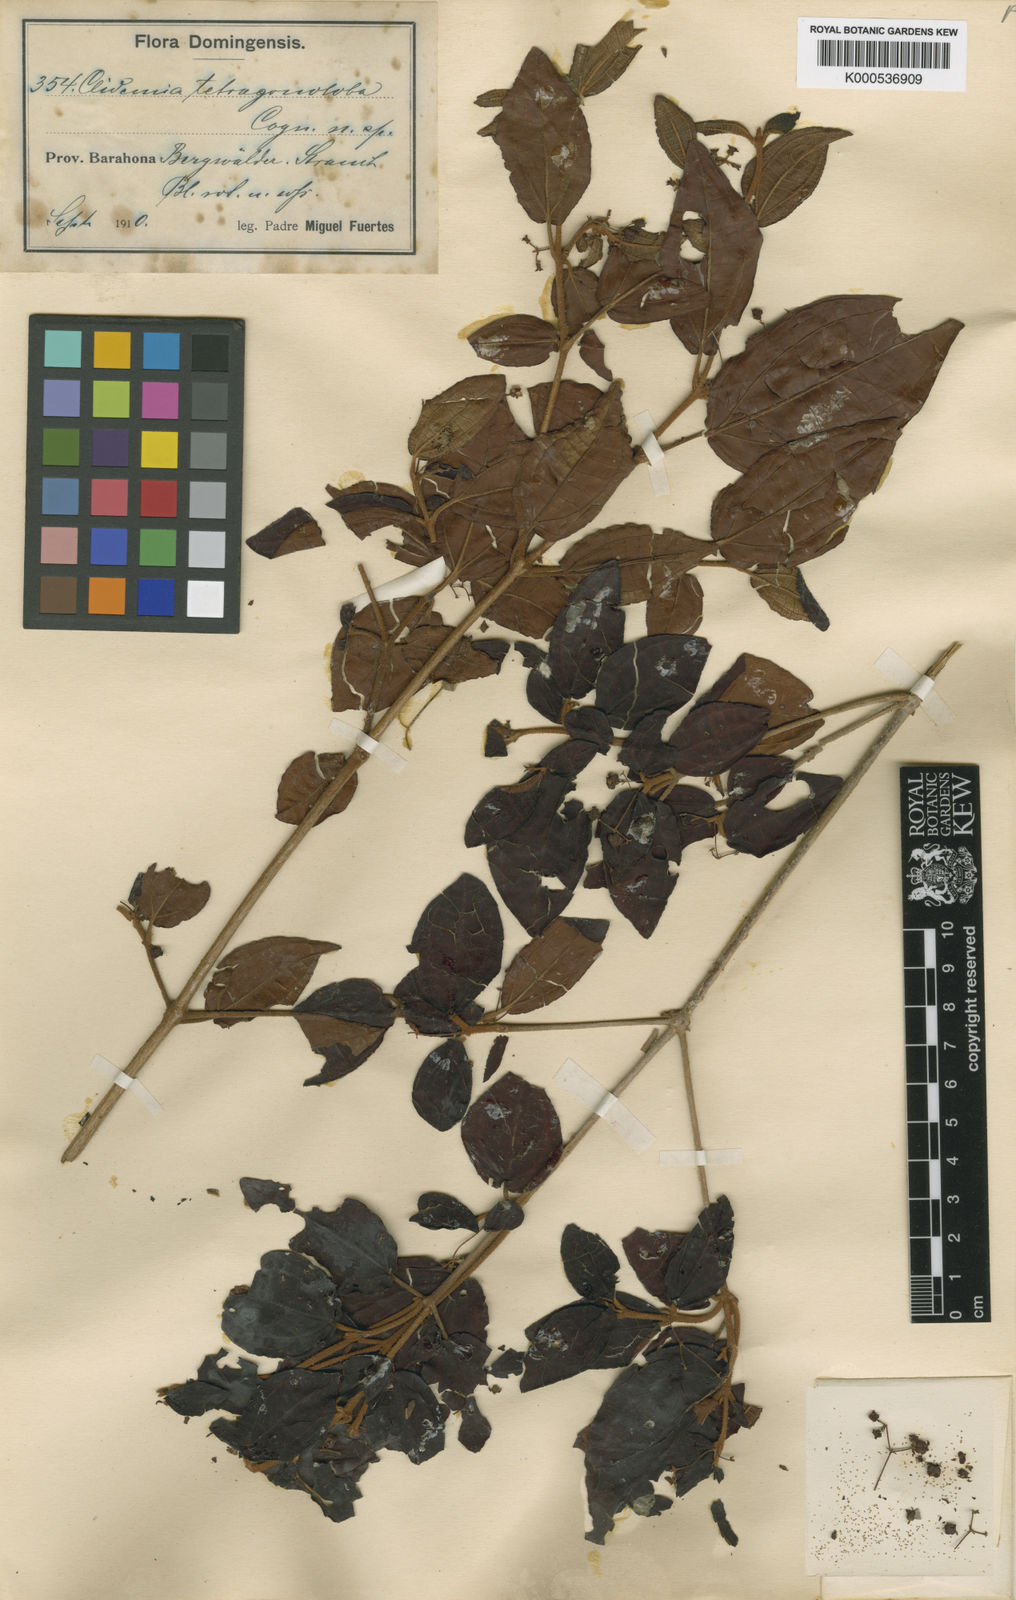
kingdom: Plantae
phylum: Tracheophyta
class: Magnoliopsida
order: Myrtales
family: Melastomataceae
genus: Miconia
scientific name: Miconia tetragonoloba
